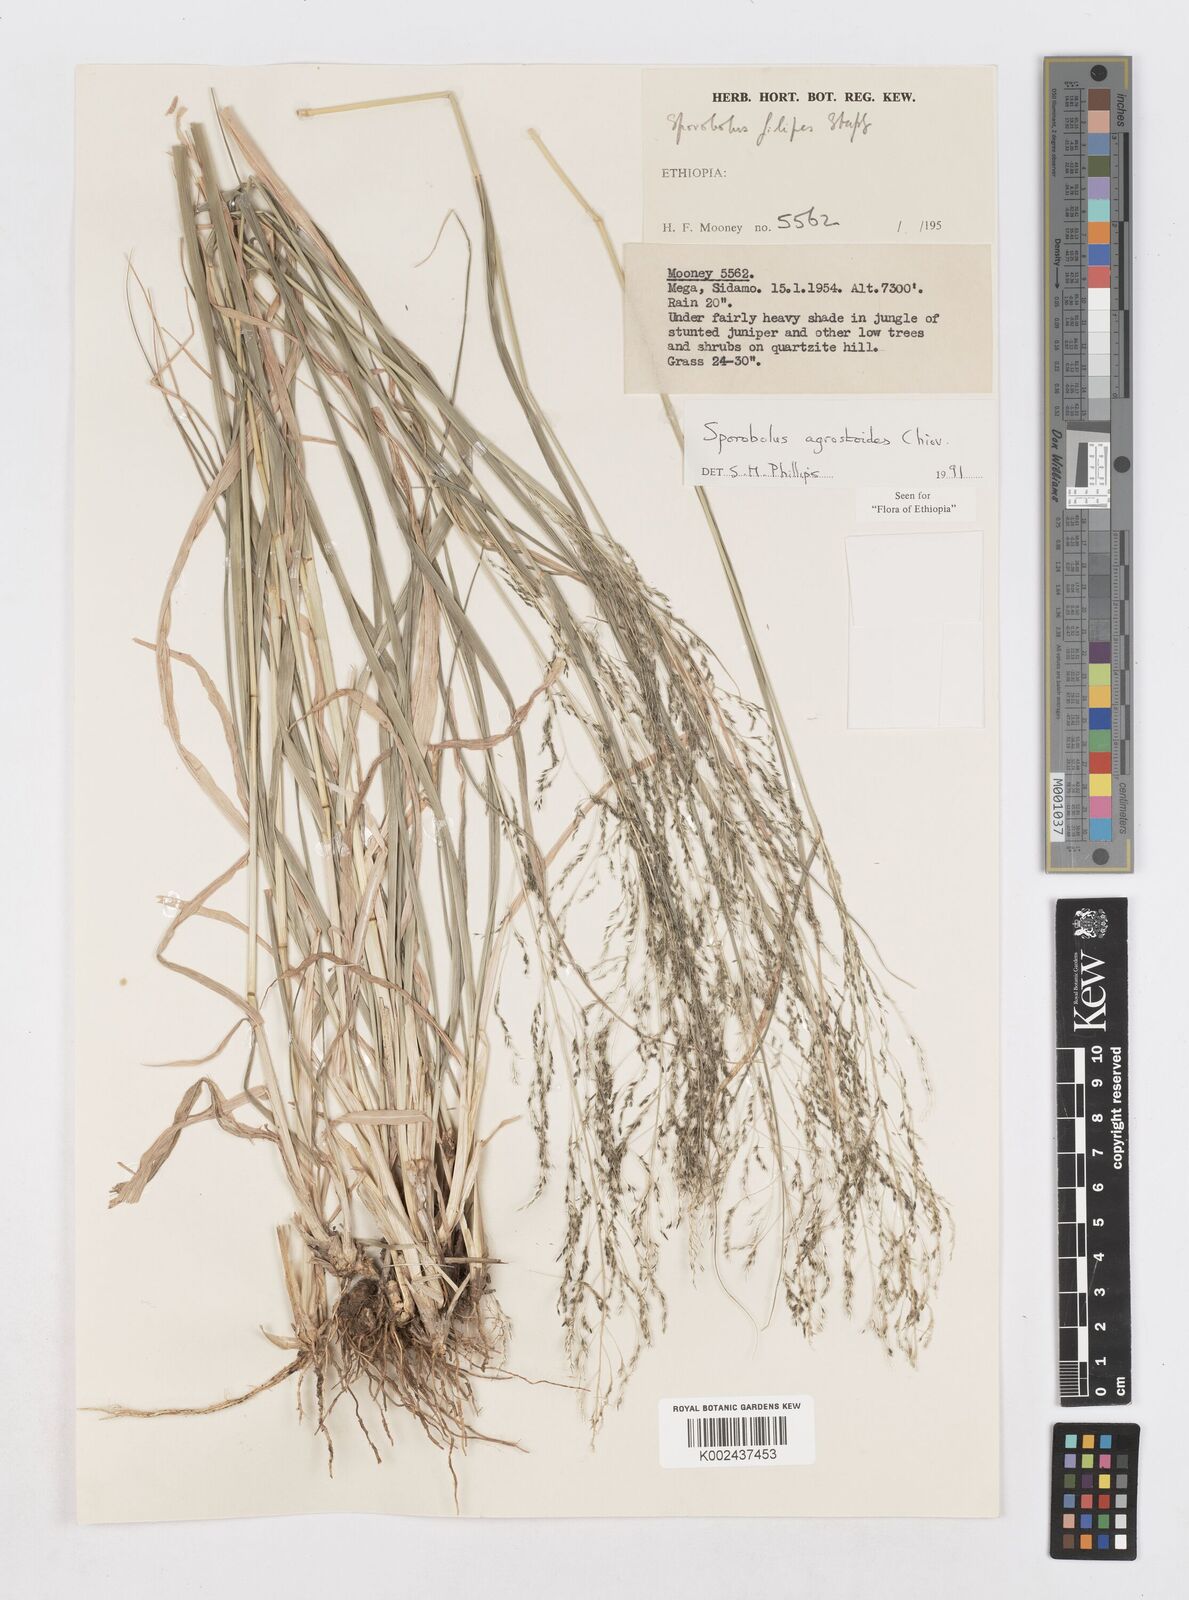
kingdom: Plantae
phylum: Tracheophyta
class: Liliopsida
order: Poales
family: Poaceae
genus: Sporobolus
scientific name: Sporobolus agrostoides
